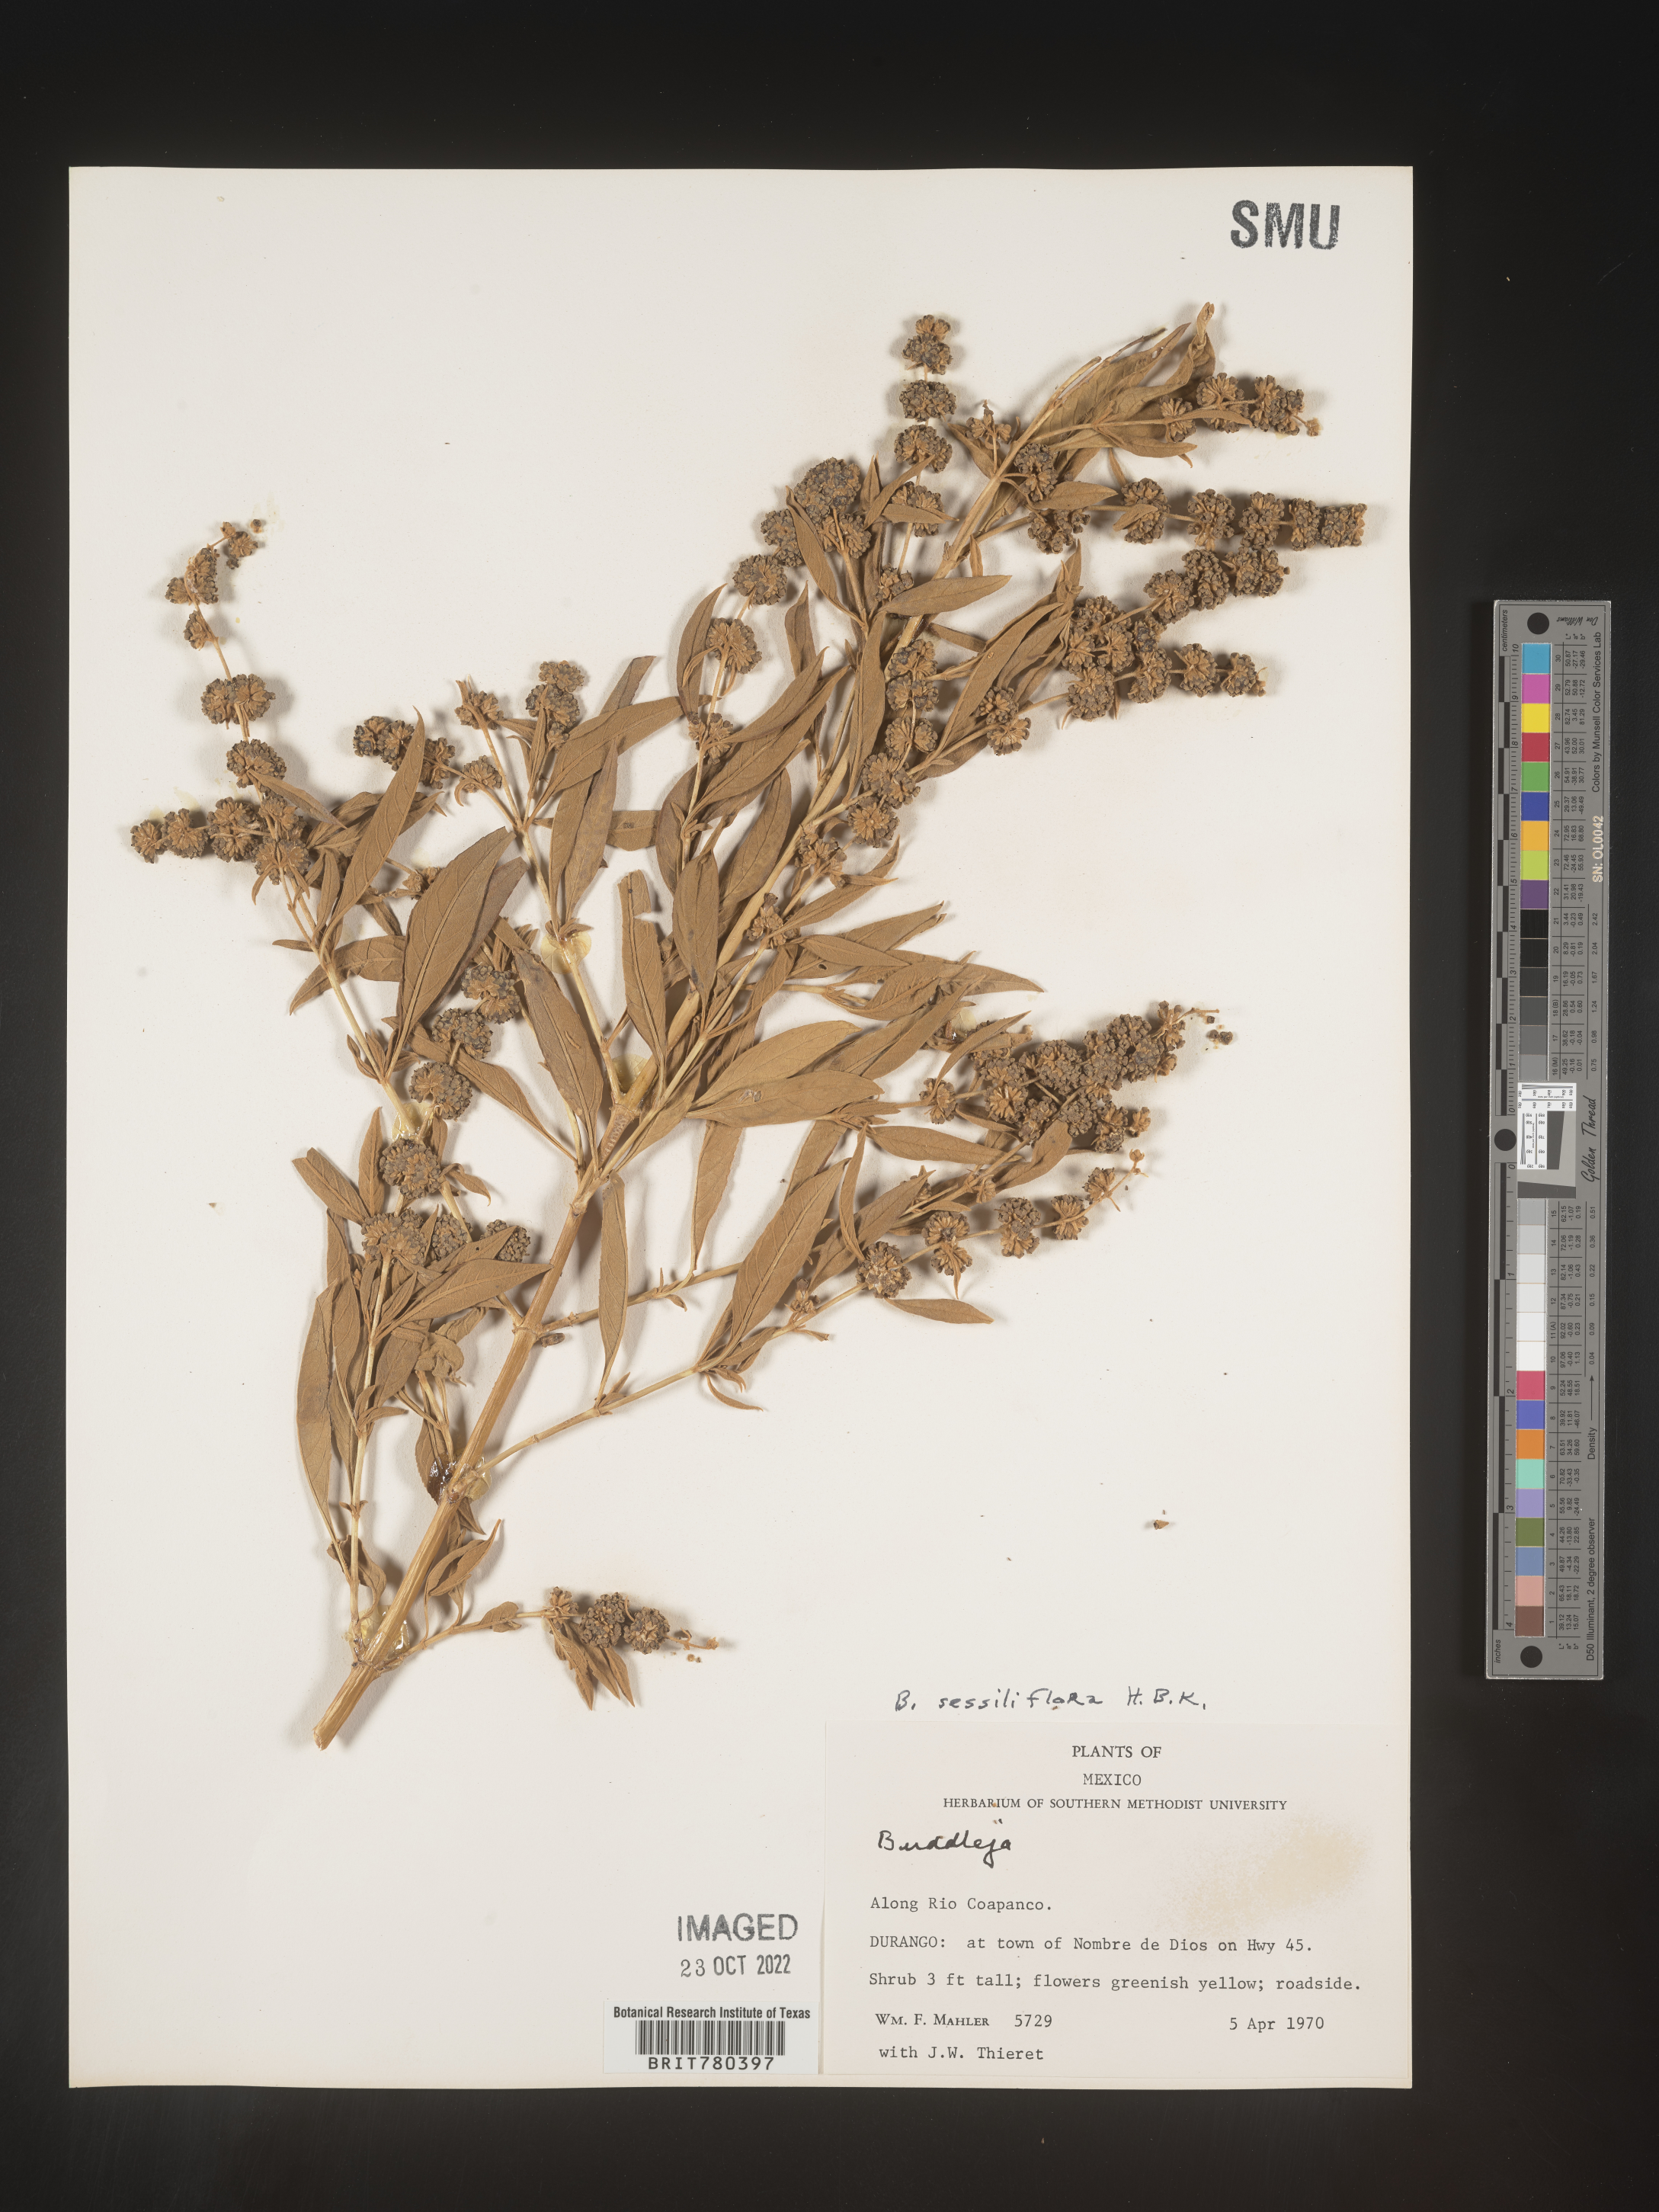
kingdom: Plantae
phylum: Tracheophyta
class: Magnoliopsida
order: Lamiales
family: Scrophulariaceae
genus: Buddleja
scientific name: Buddleja
